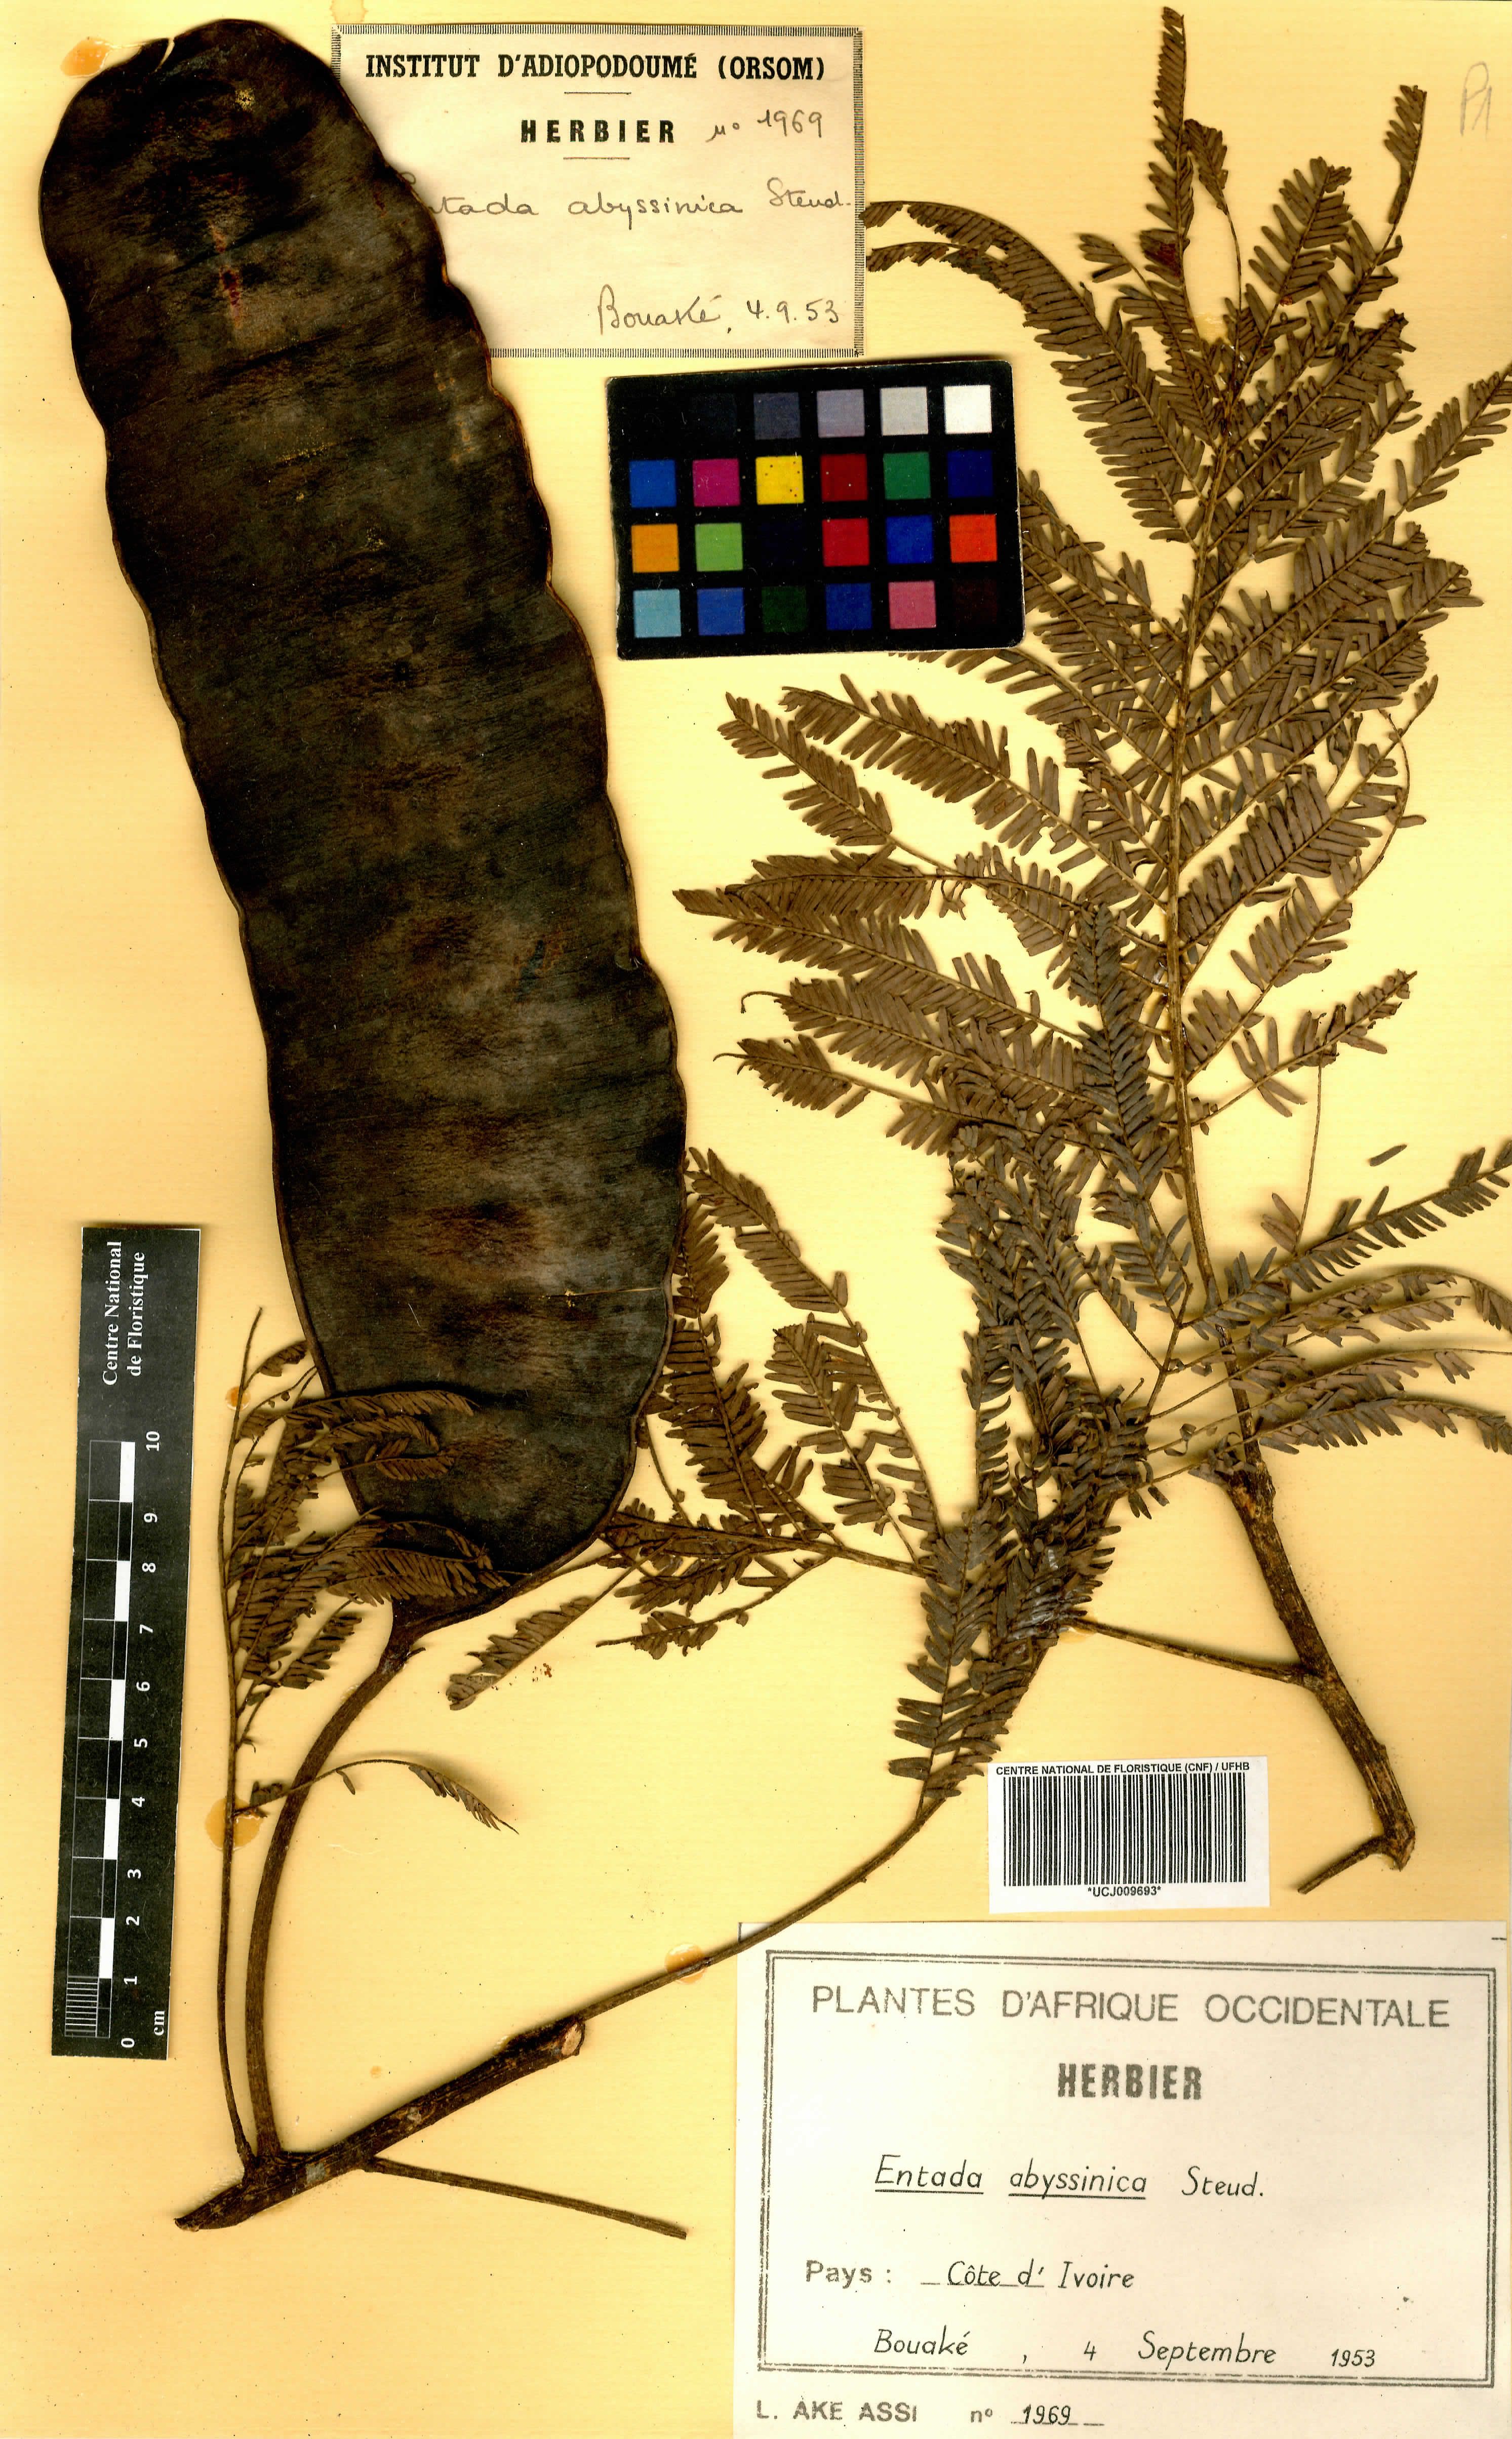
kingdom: Plantae
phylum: Tracheophyta
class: Magnoliopsida
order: Fabales
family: Fabaceae
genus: Entada
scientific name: Entada abyssinica
